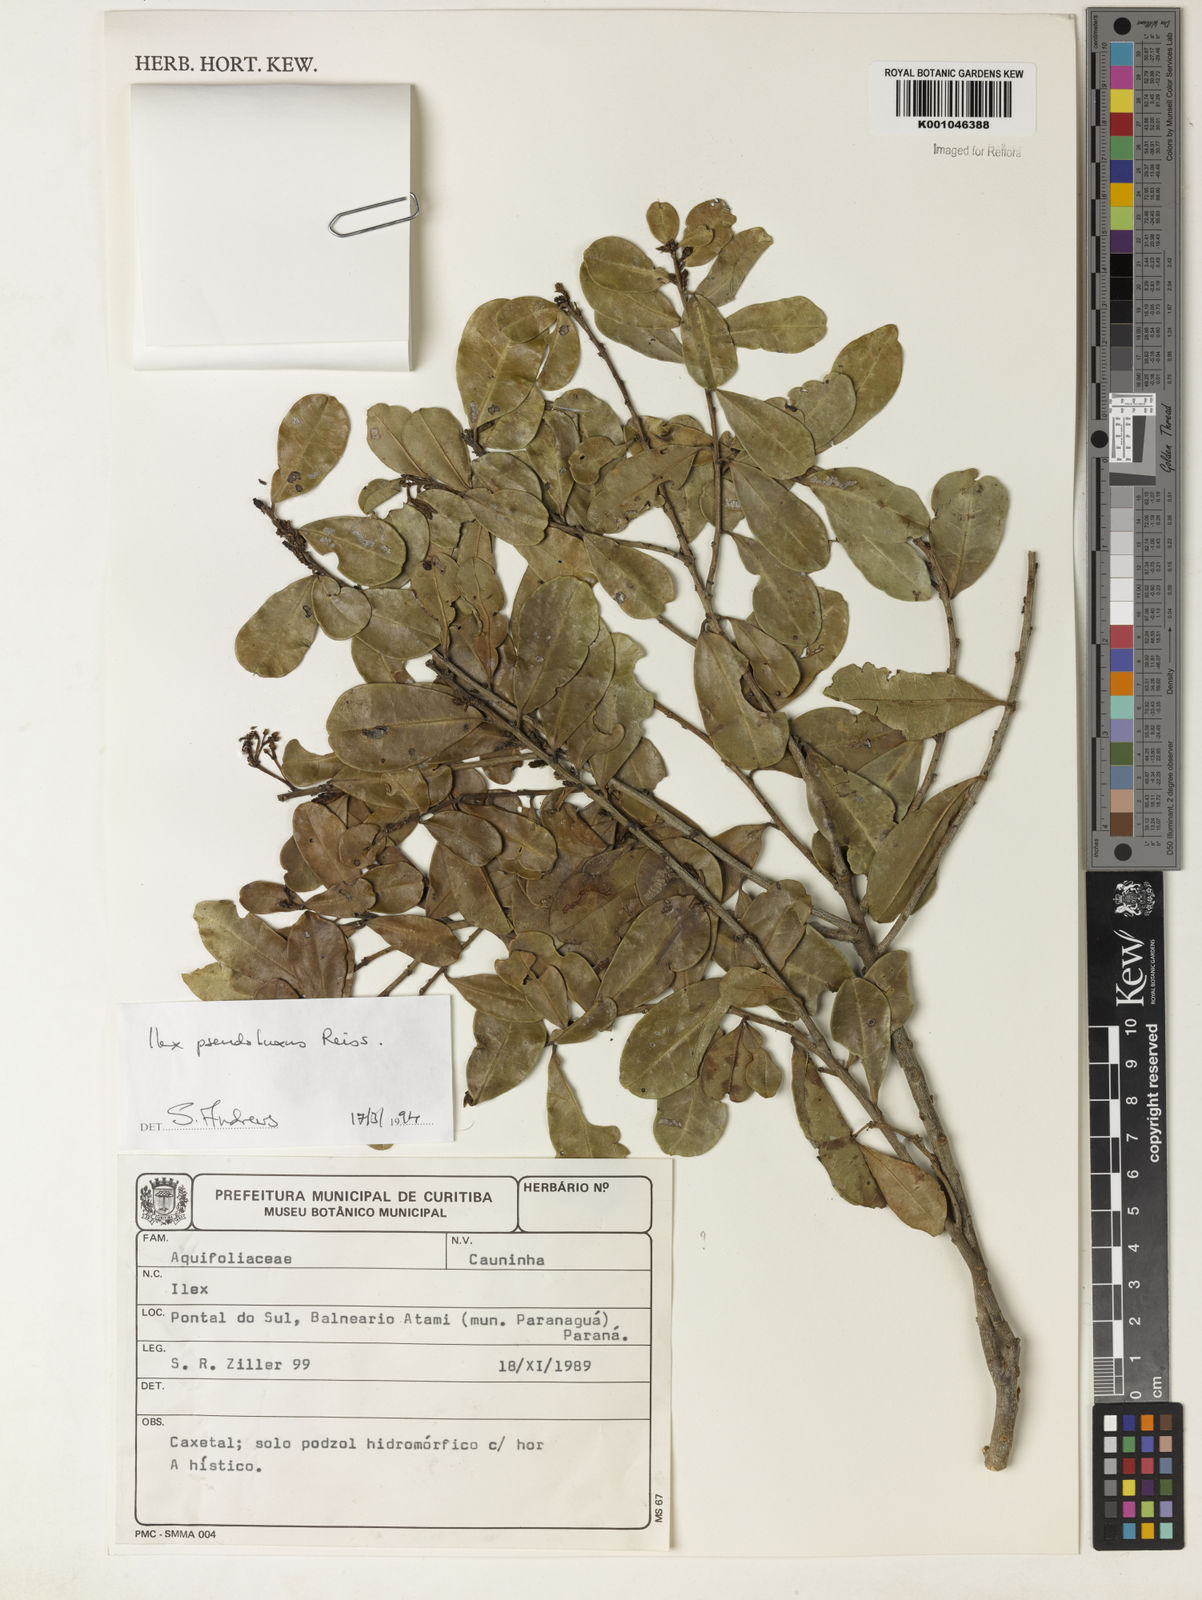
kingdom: Plantae
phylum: Tracheophyta
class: Magnoliopsida
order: Aquifoliales
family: Aquifoliaceae
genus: Ilex
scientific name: Ilex pseudobuxus
